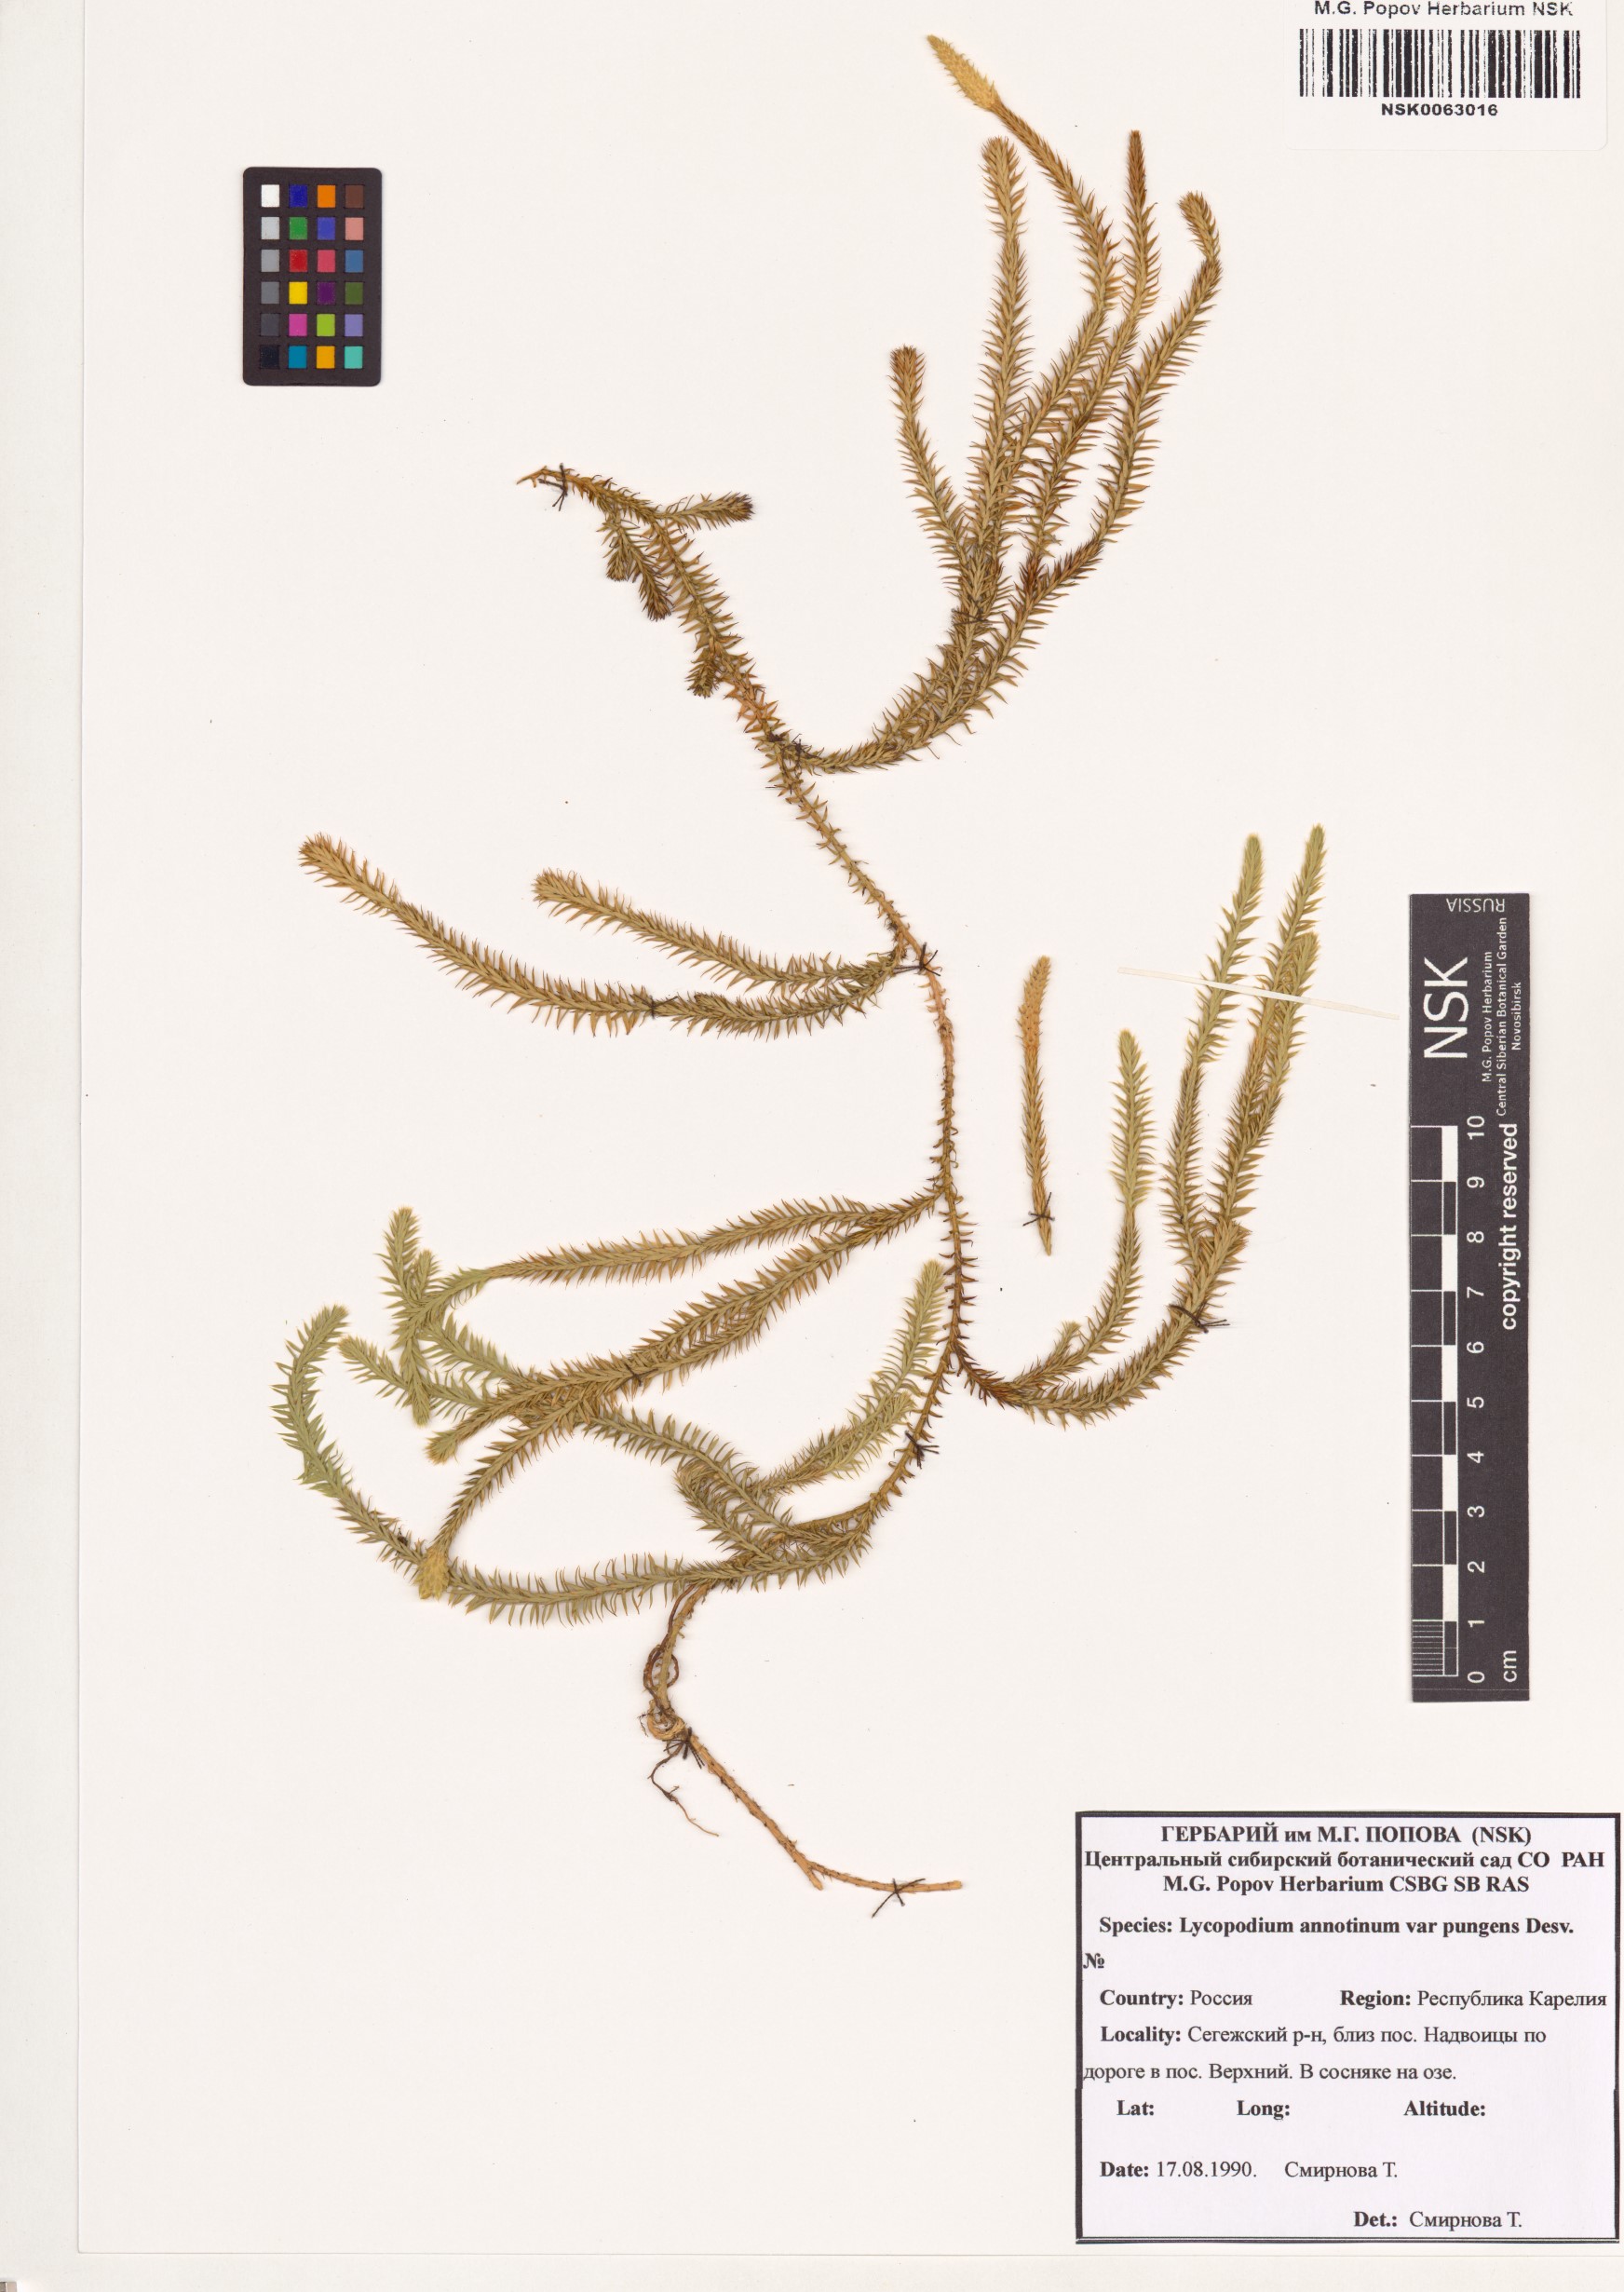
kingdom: Plantae
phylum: Tracheophyta
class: Lycopodiopsida
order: Lycopodiales
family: Lycopodiaceae
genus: Spinulum
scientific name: Spinulum annotinum
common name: Interrupted club-moss
